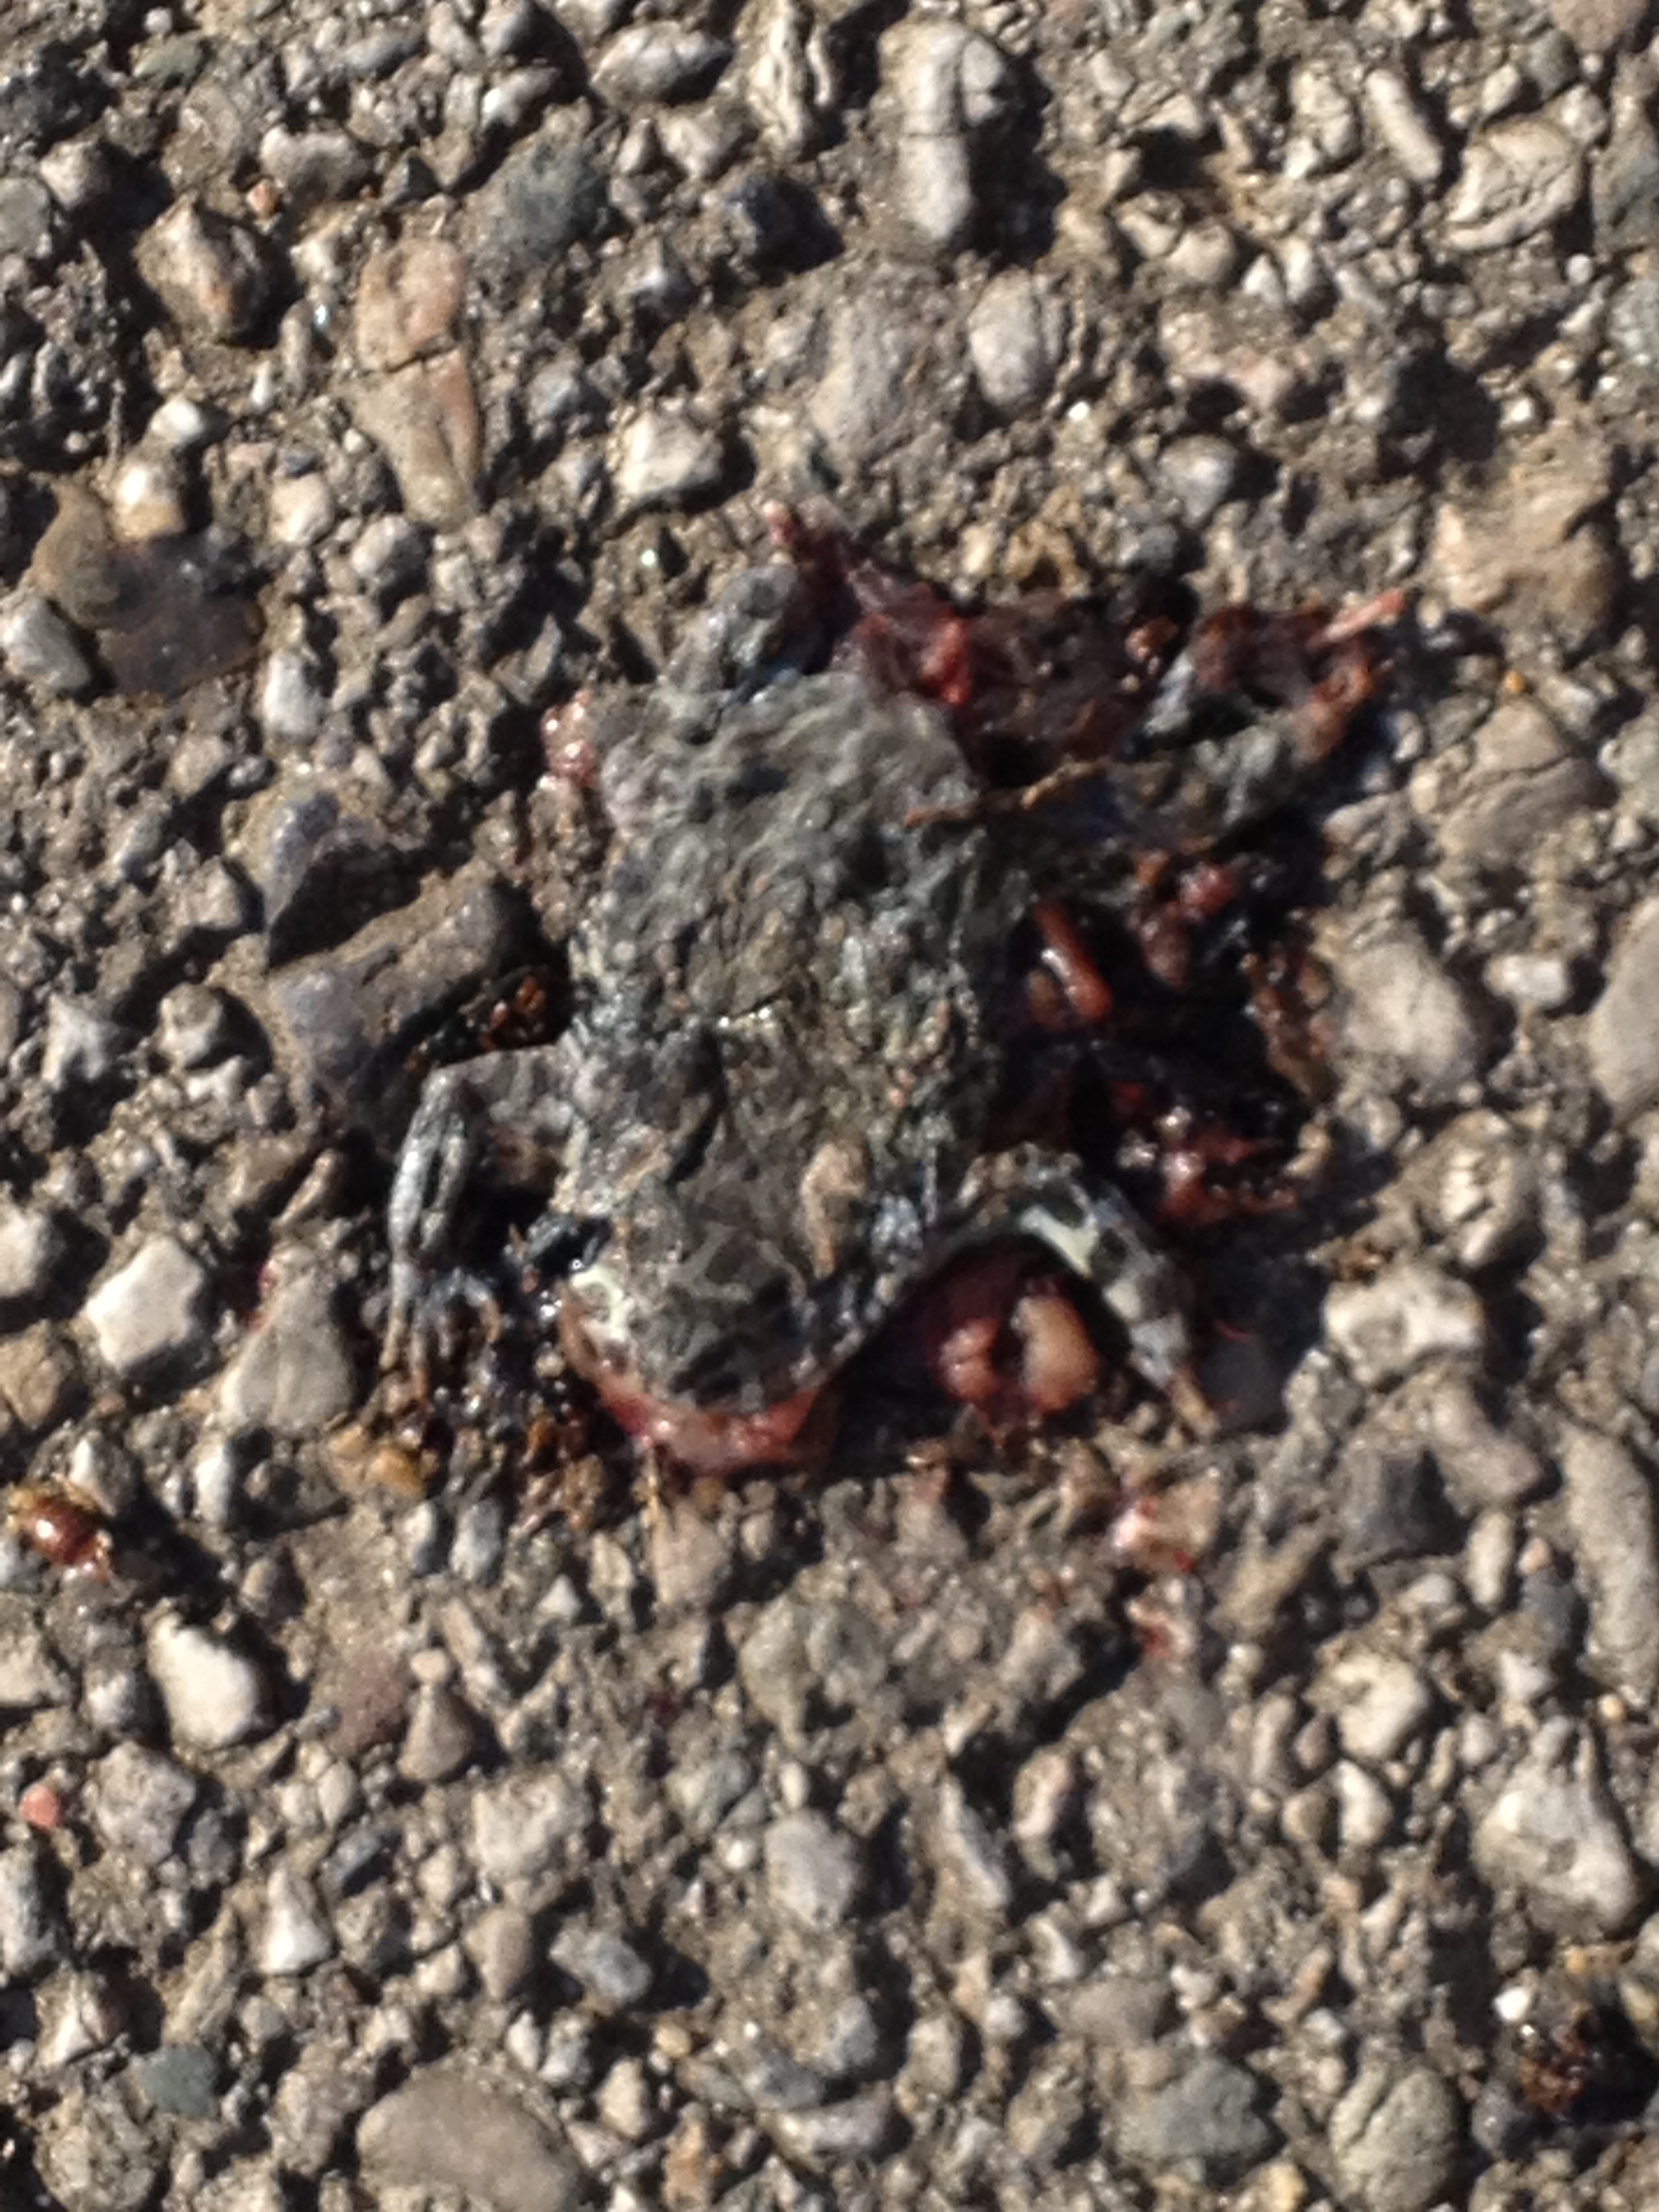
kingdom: Animalia
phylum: Chordata
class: Amphibia
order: Anura
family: Bufonidae
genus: Bufotes
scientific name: Bufotes viridis
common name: European green toad
